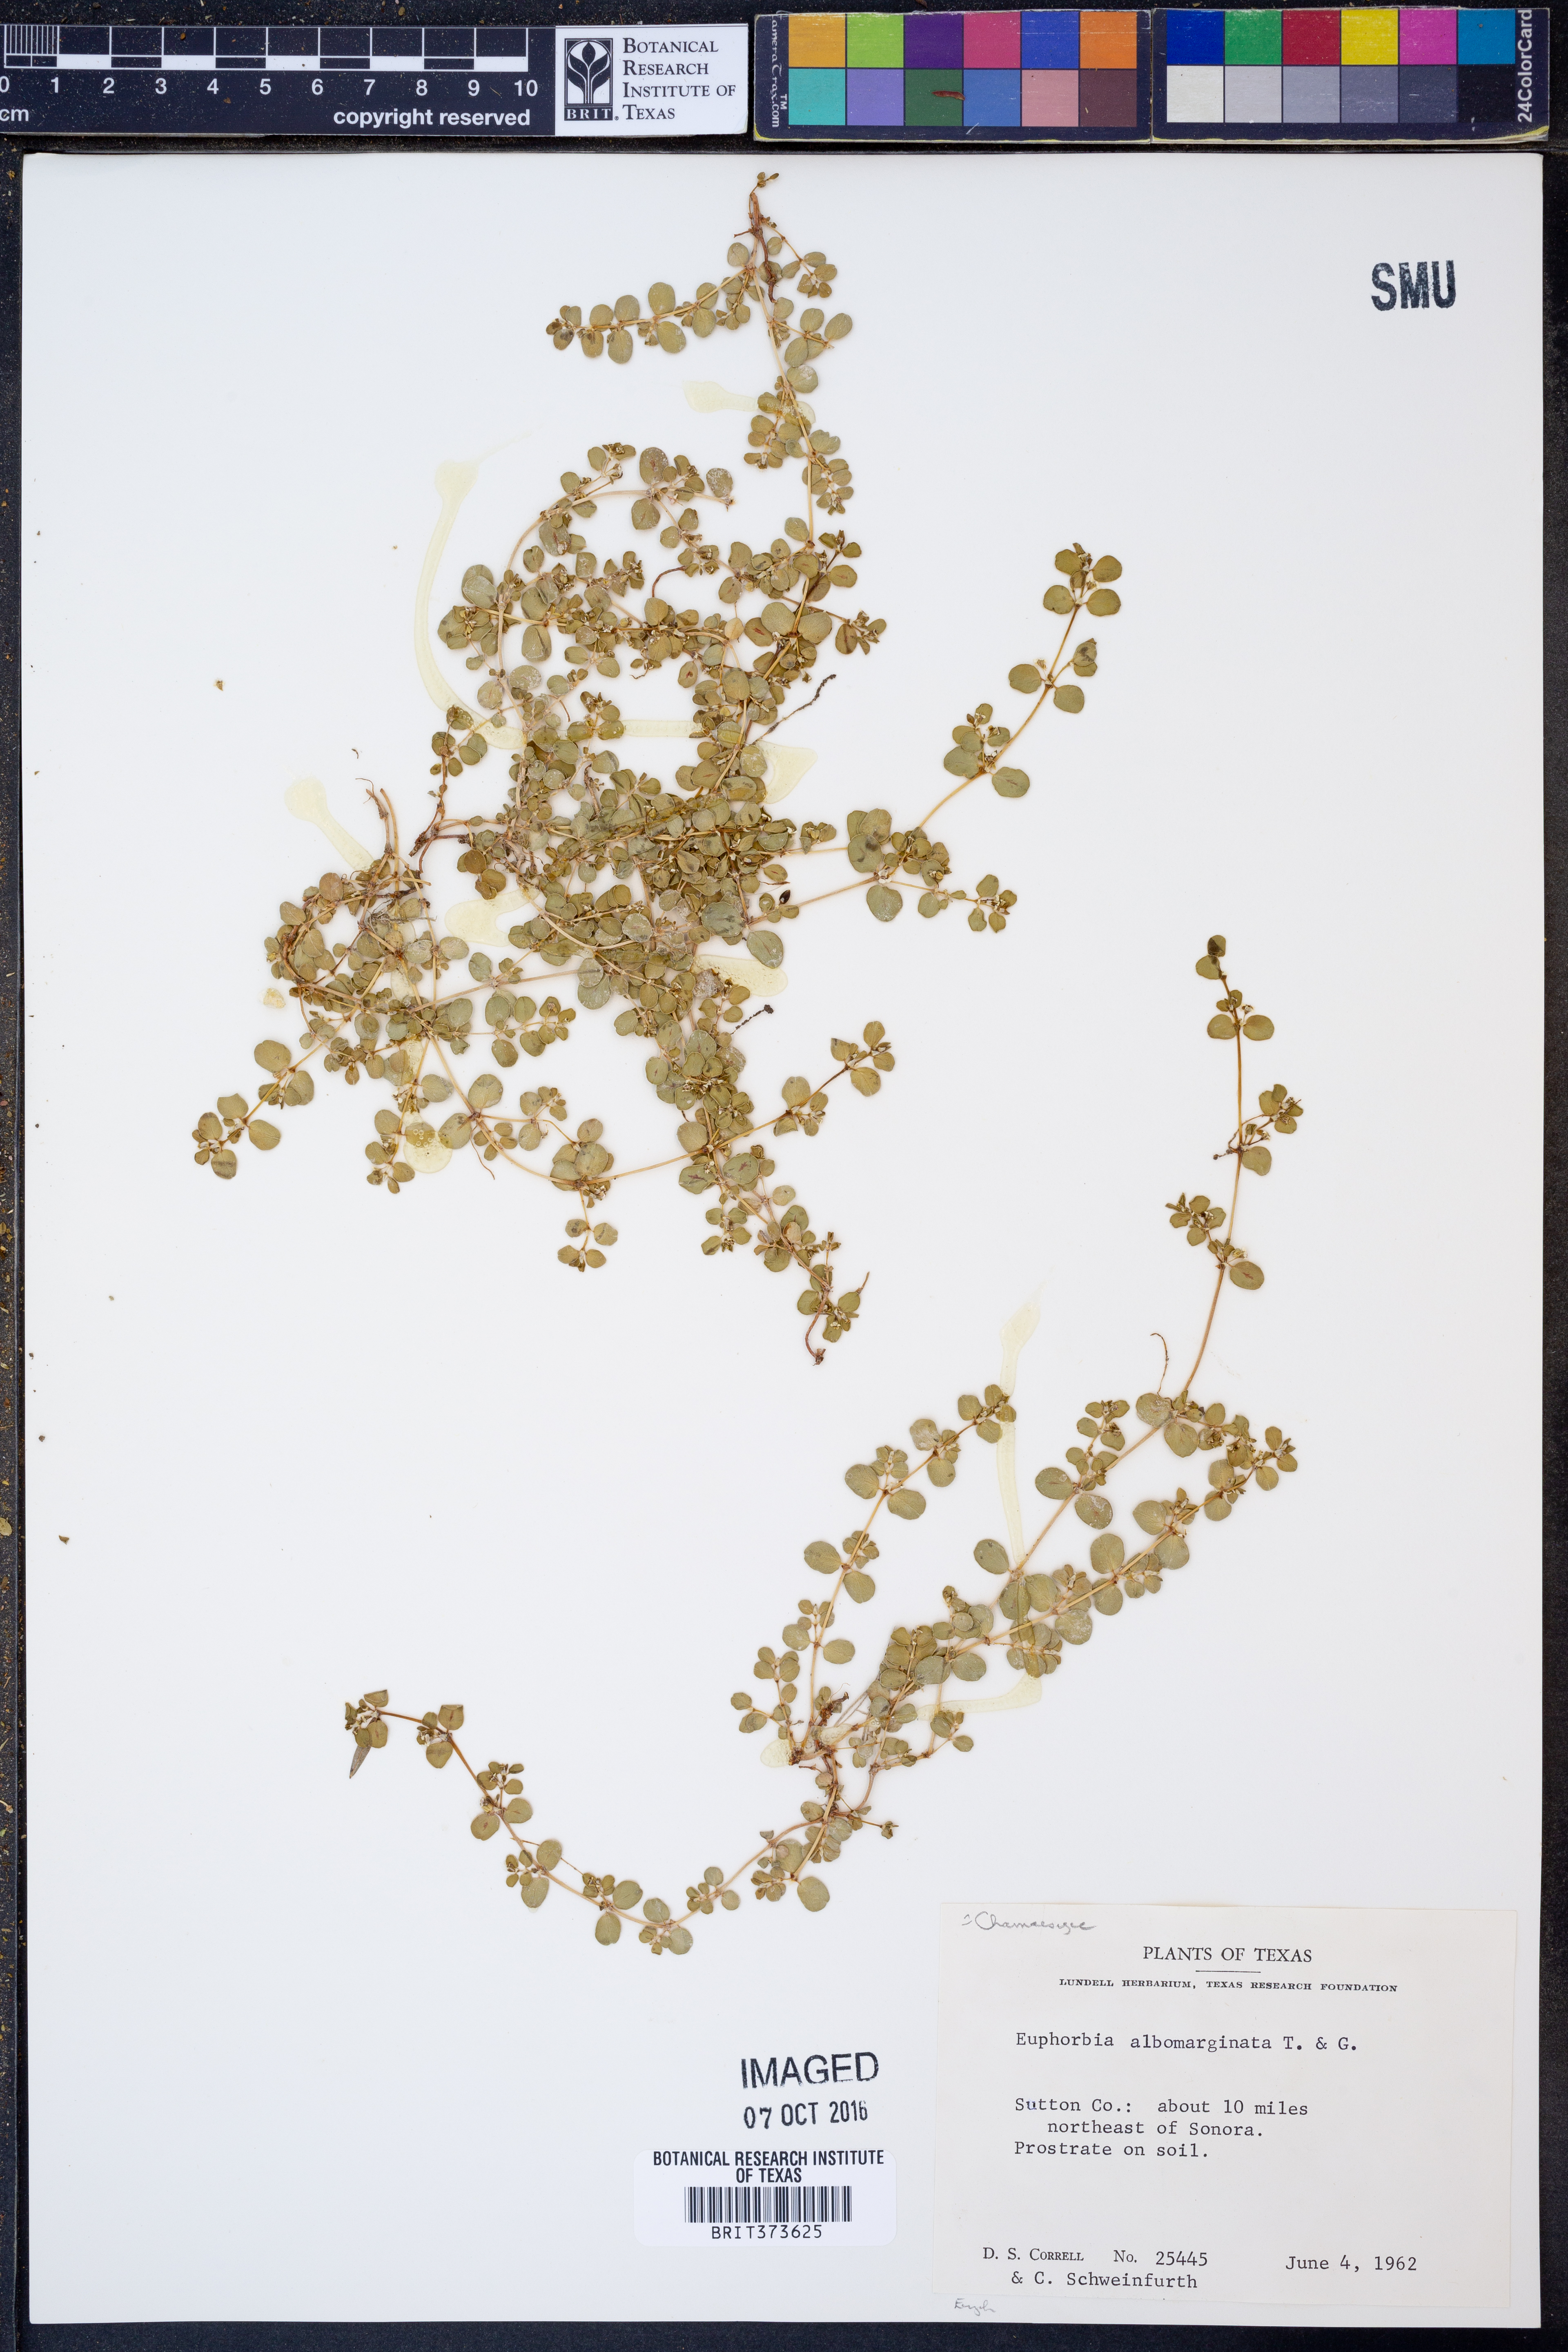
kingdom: Plantae
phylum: Tracheophyta
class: Magnoliopsida
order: Malpighiales
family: Euphorbiaceae
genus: Euphorbia
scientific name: Euphorbia albomarginata
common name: Whitemargin sandmat
